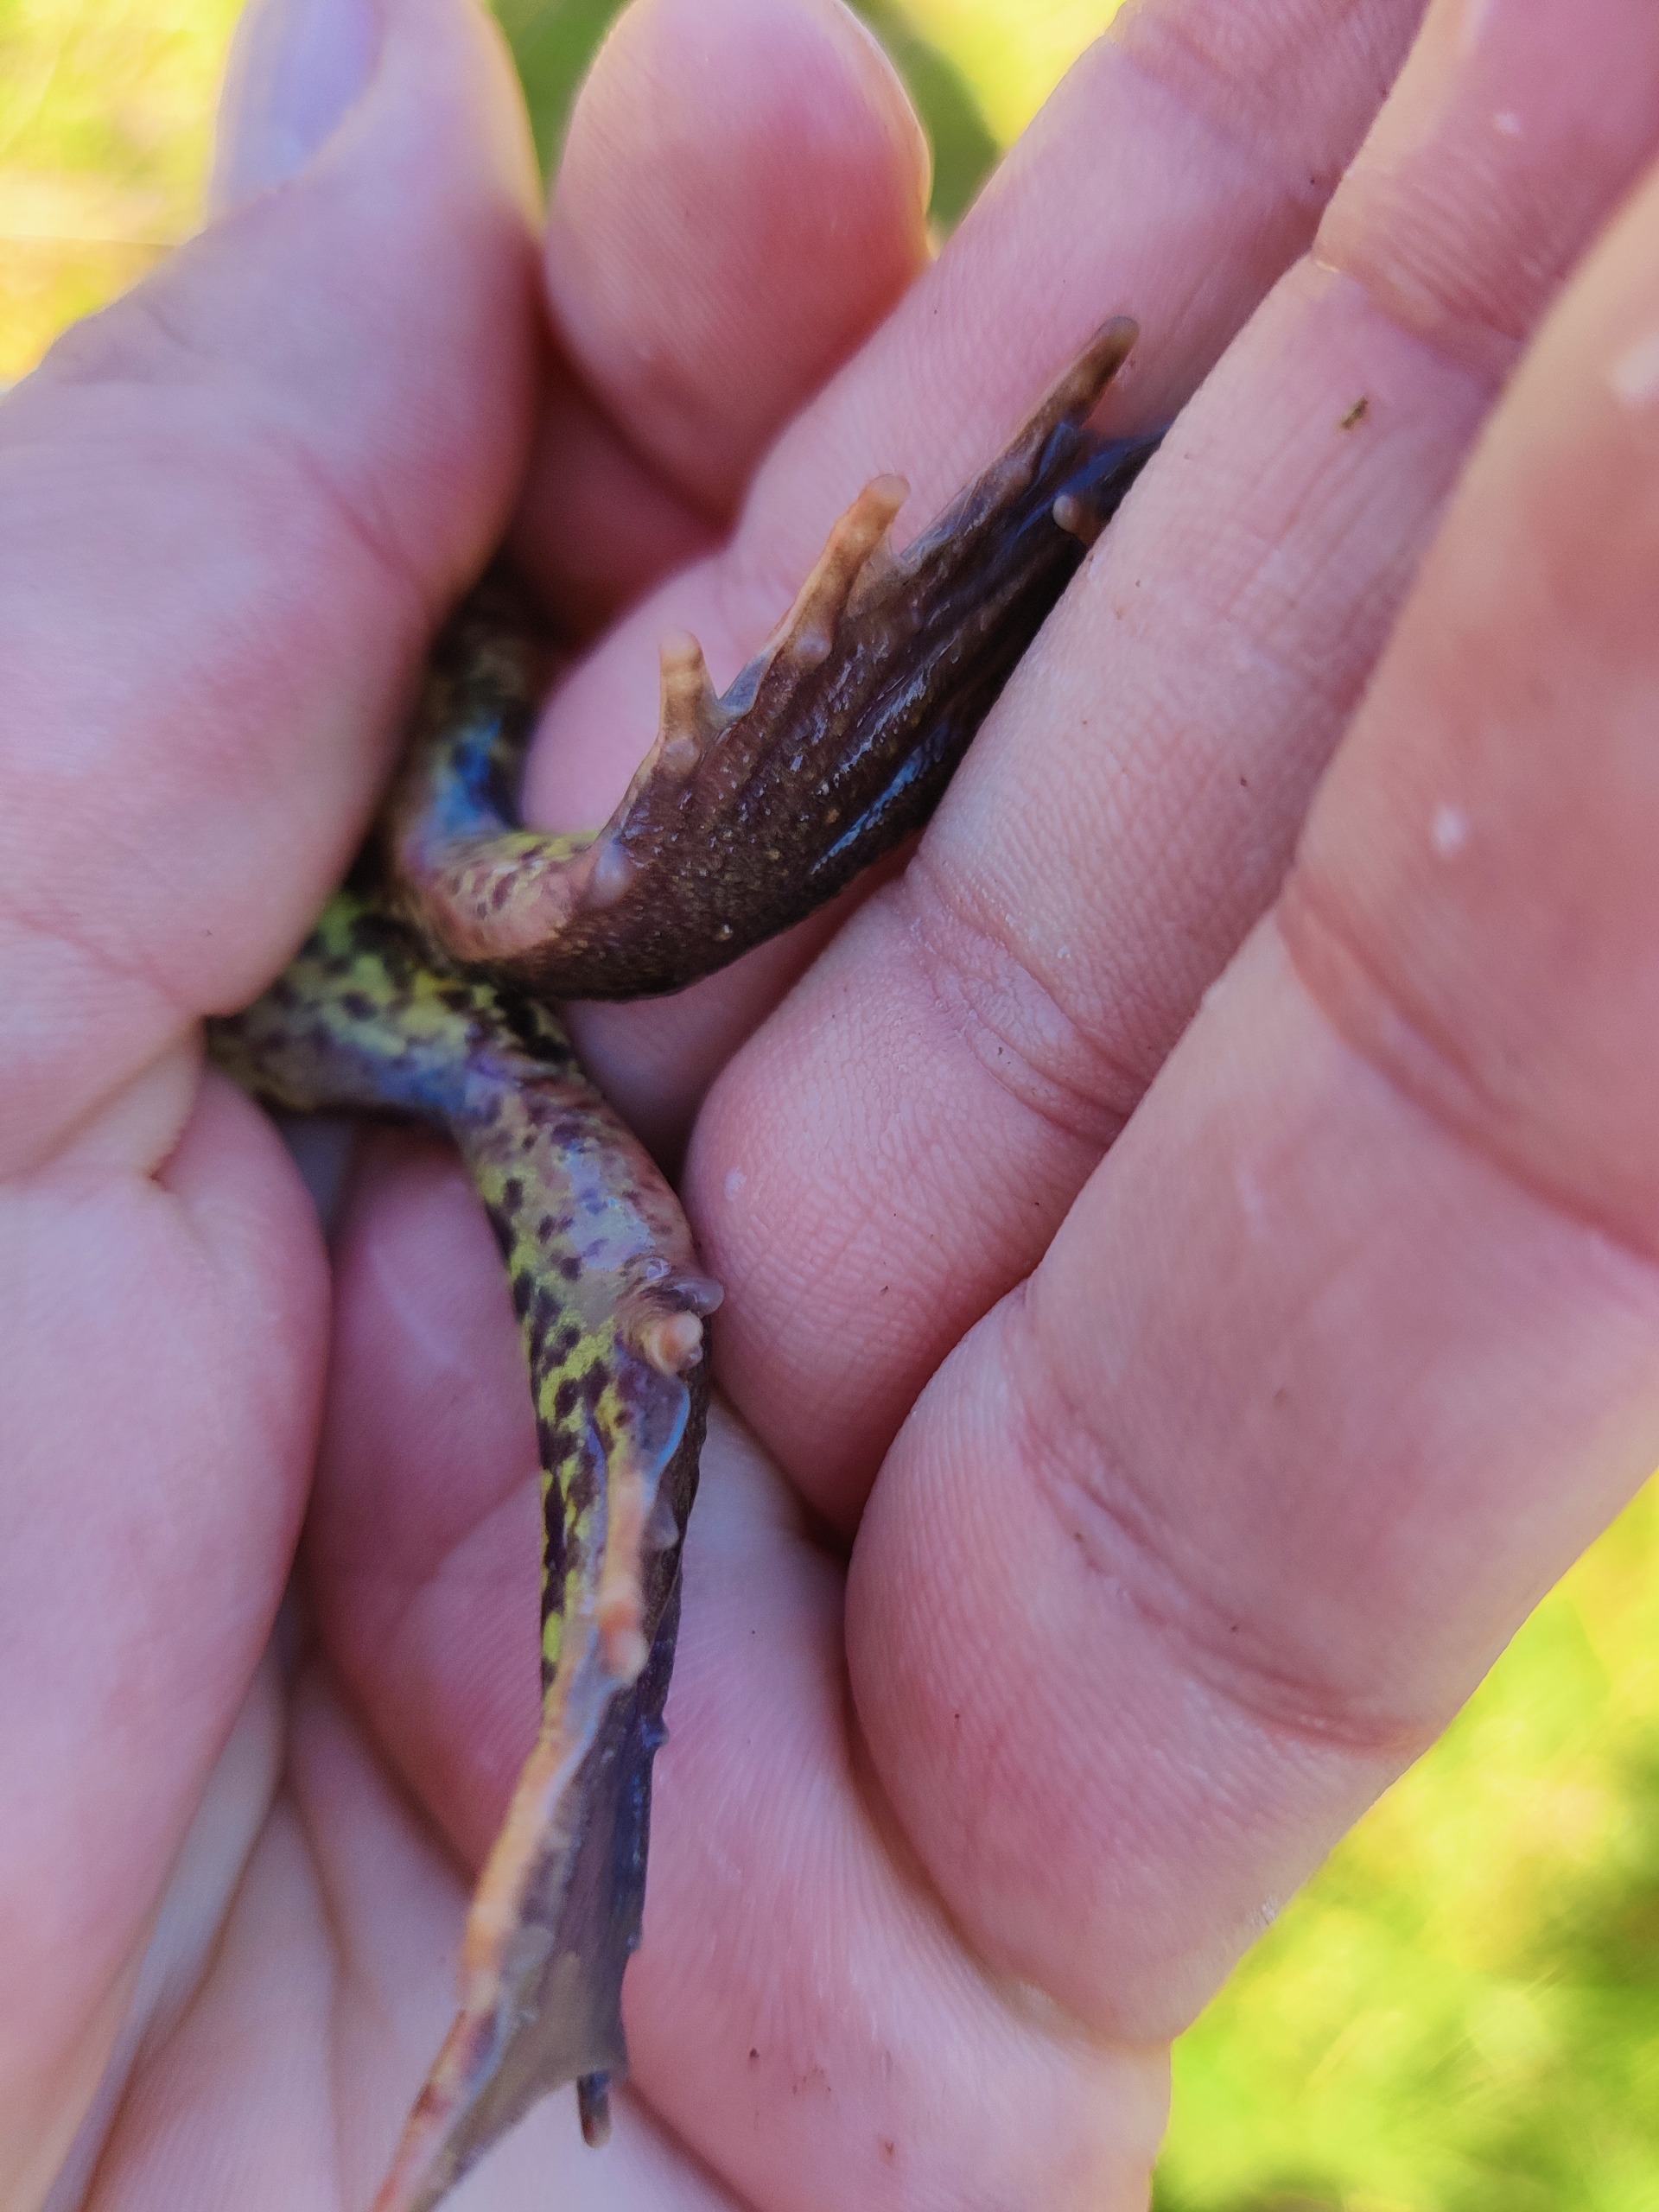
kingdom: Animalia
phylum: Chordata
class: Amphibia
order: Anura
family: Ranidae
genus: Rana
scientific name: Rana temporaria
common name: Butsnudet frø
